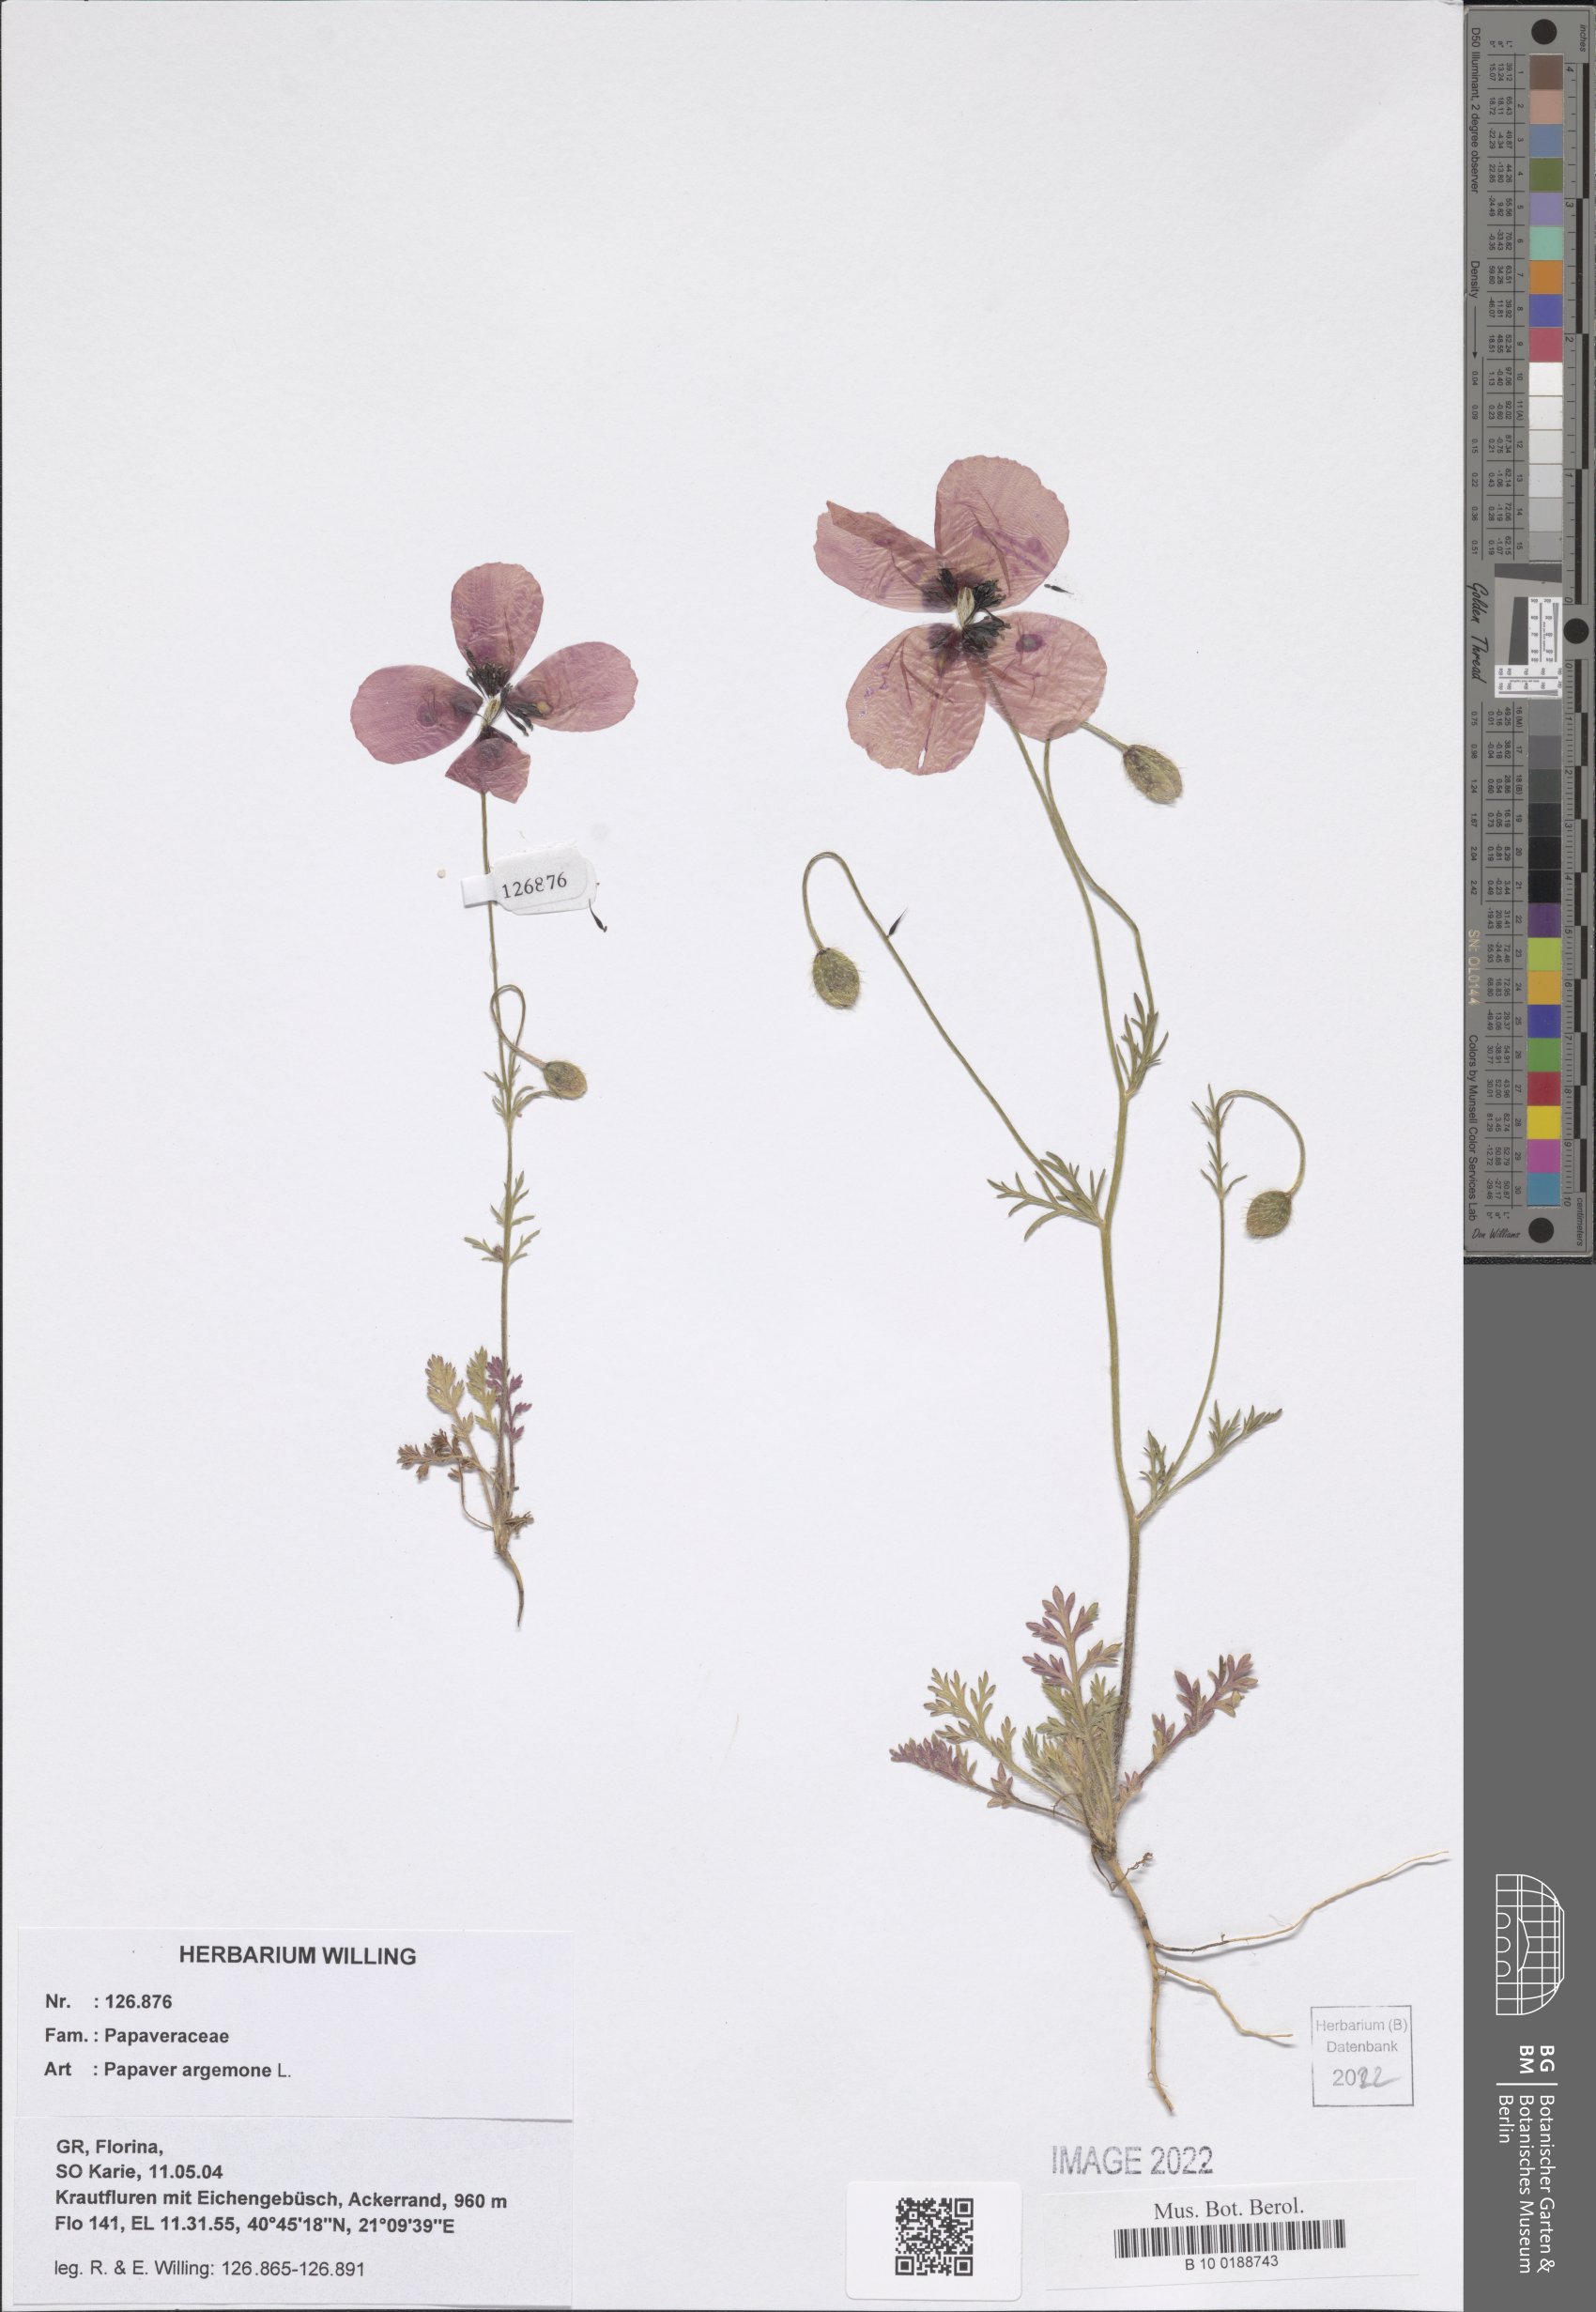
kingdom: Plantae
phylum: Tracheophyta
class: Magnoliopsida
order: Ranunculales
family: Papaveraceae
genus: Roemeria
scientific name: Roemeria argemone
